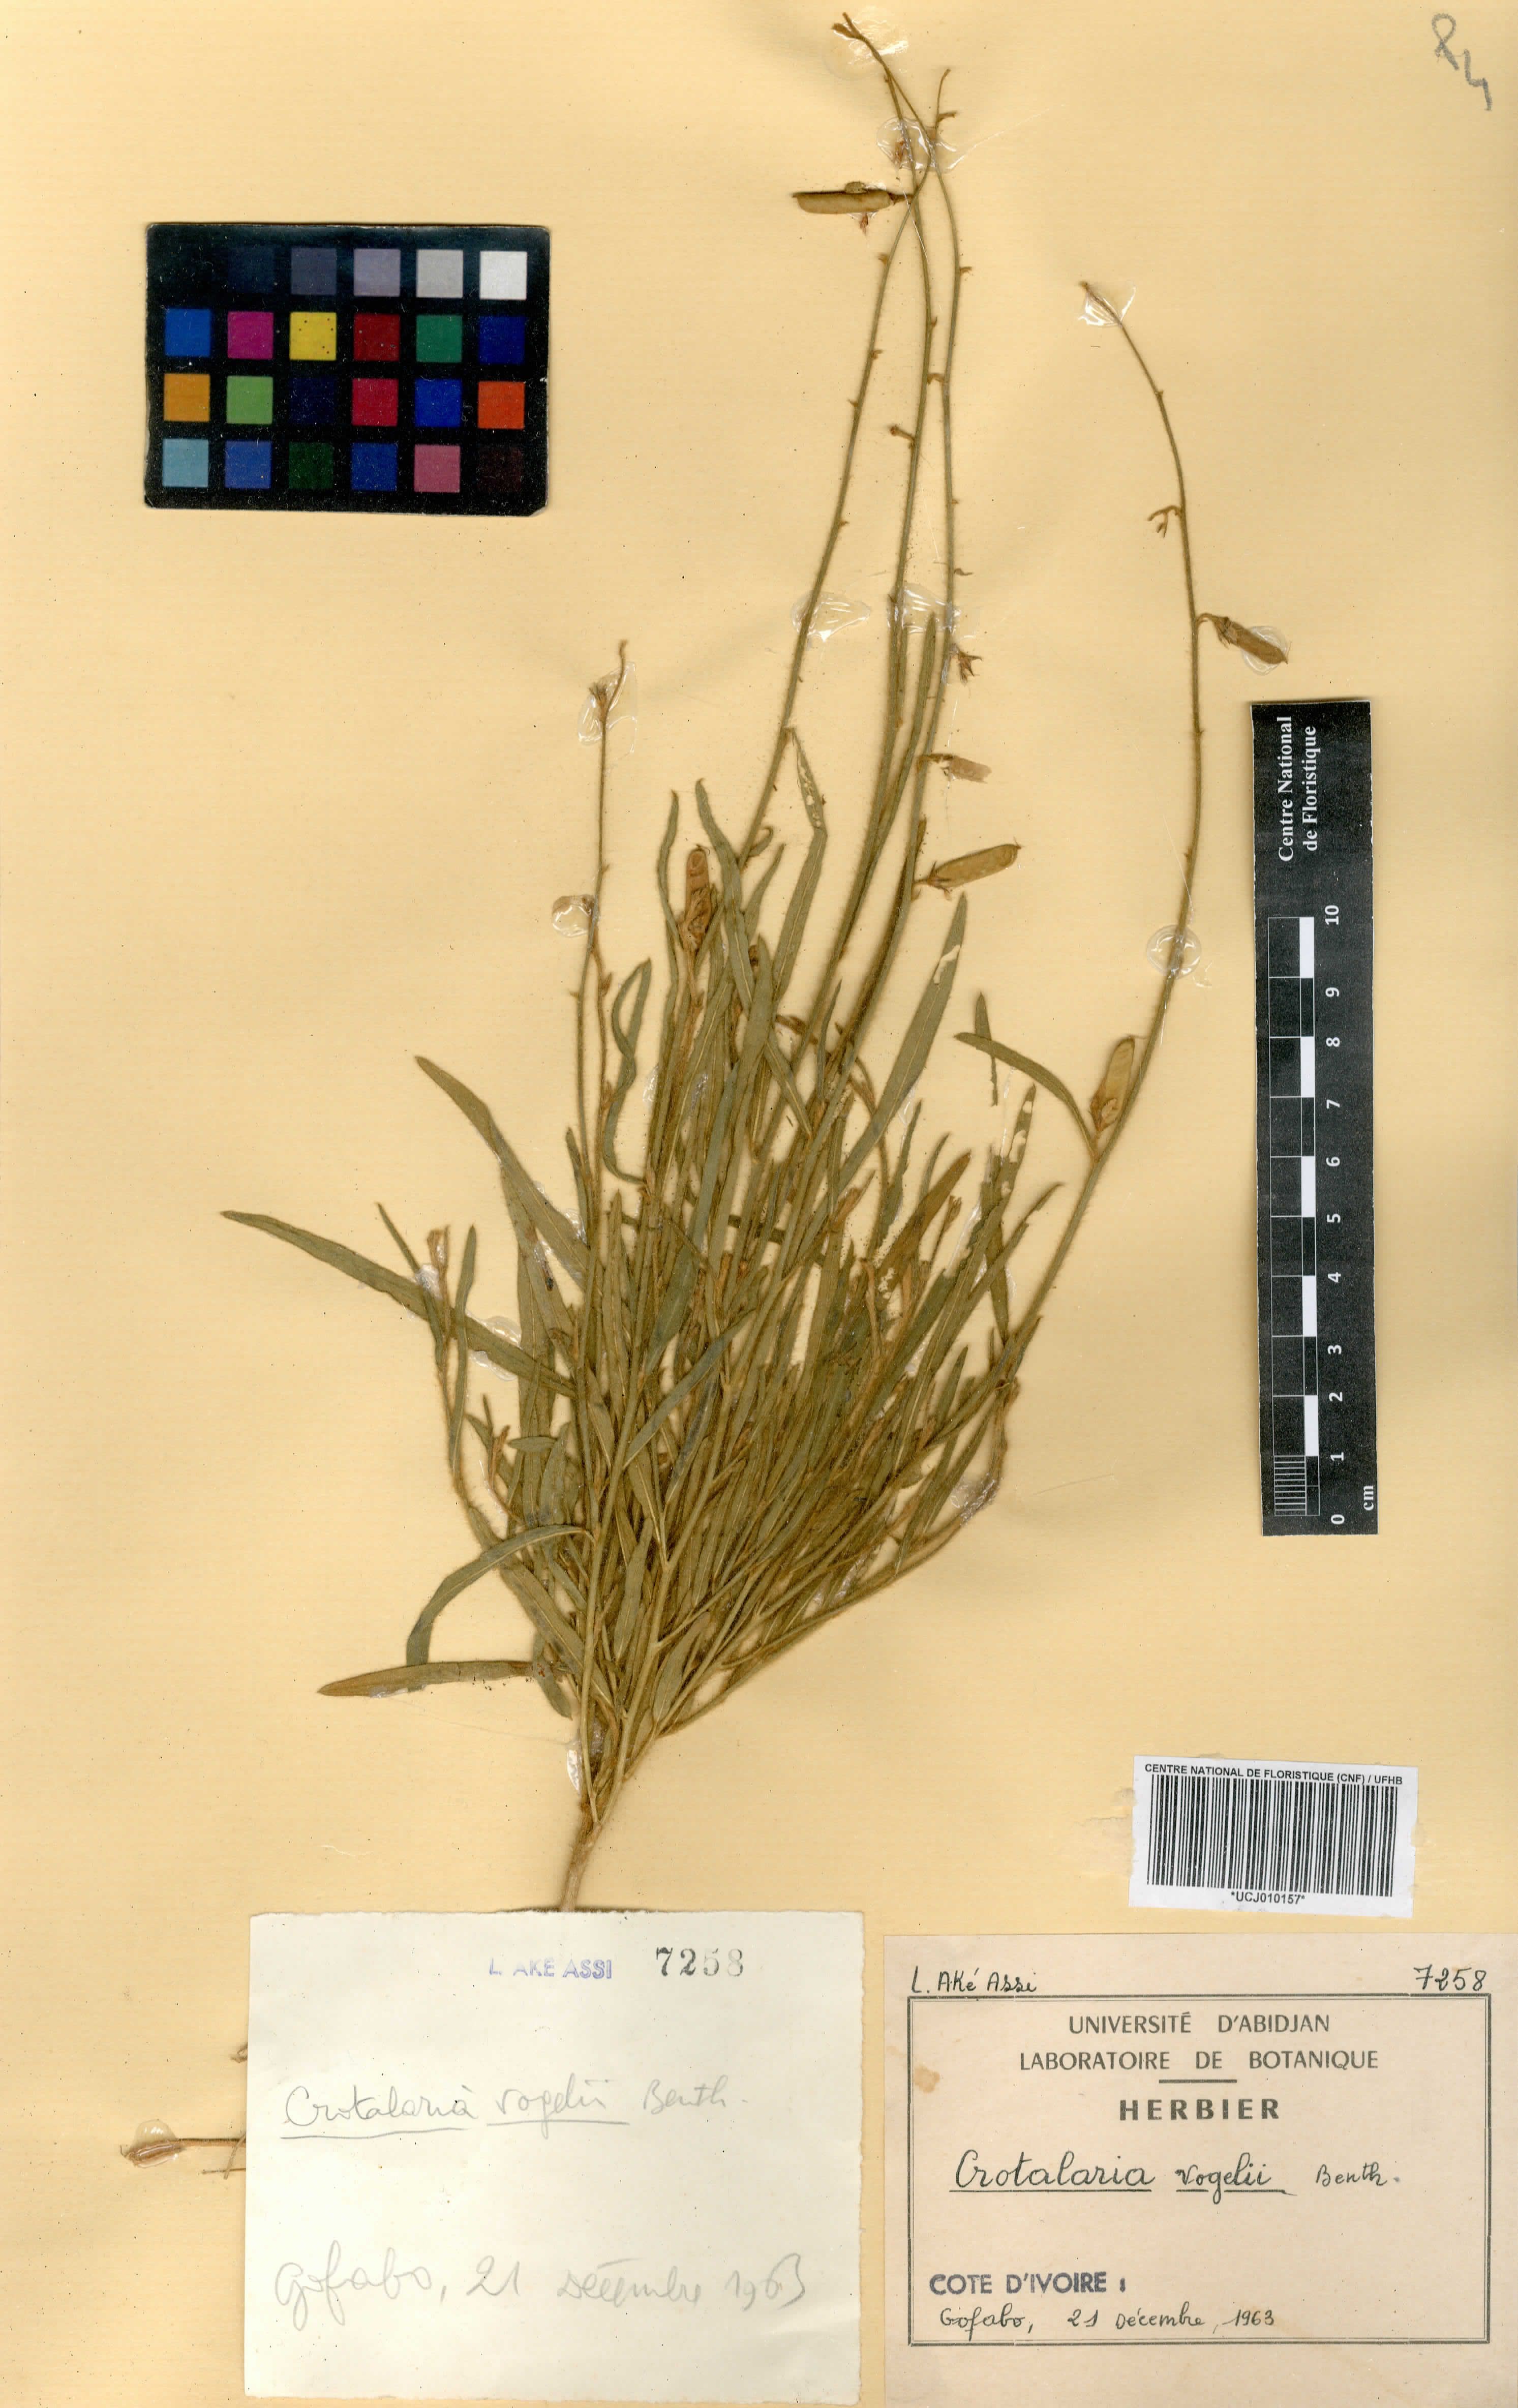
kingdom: Plantae
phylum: Tracheophyta
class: Magnoliopsida
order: Fabales
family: Fabaceae
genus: Crotalaria
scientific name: Crotalaria leprieurii
